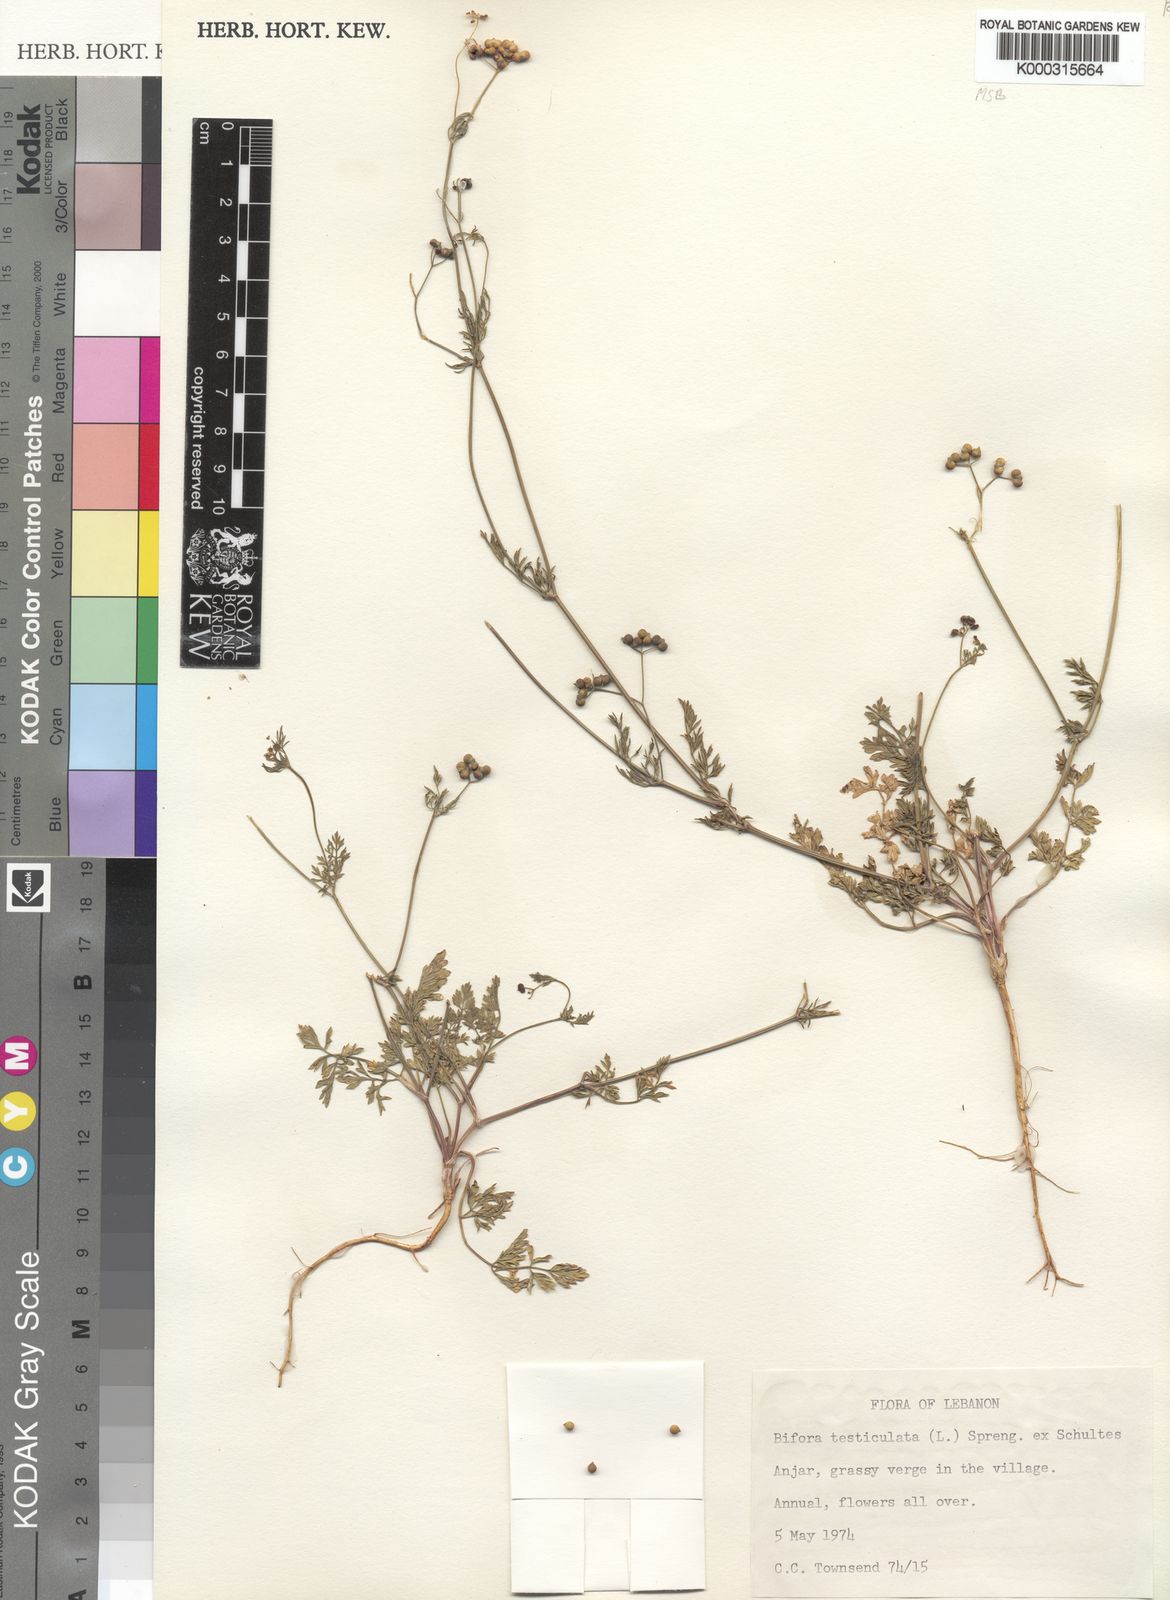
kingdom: Plantae
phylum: Tracheophyta
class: Magnoliopsida
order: Apiales
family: Apiaceae
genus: Bifora
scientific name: Bifora
